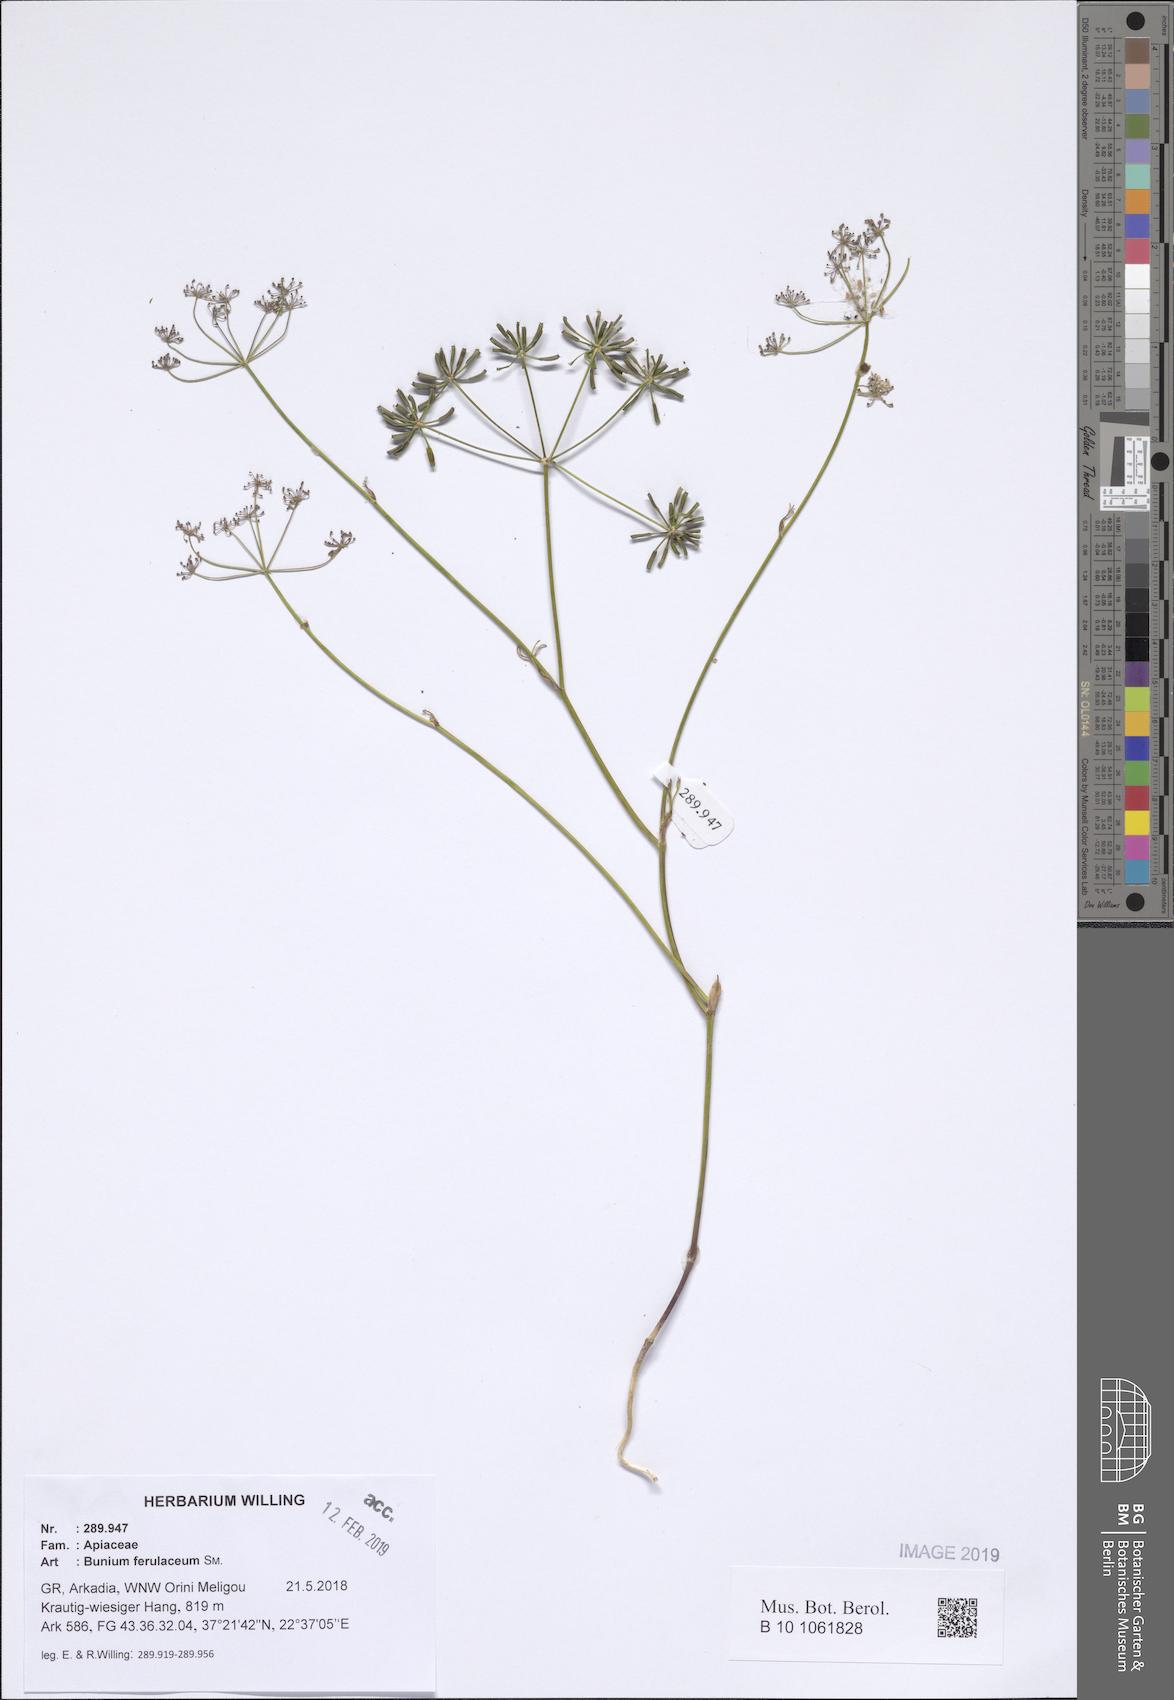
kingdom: Plantae
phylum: Tracheophyta
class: Magnoliopsida
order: Apiales
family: Apiaceae
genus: Bunium
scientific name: Bunium ferulaceum
